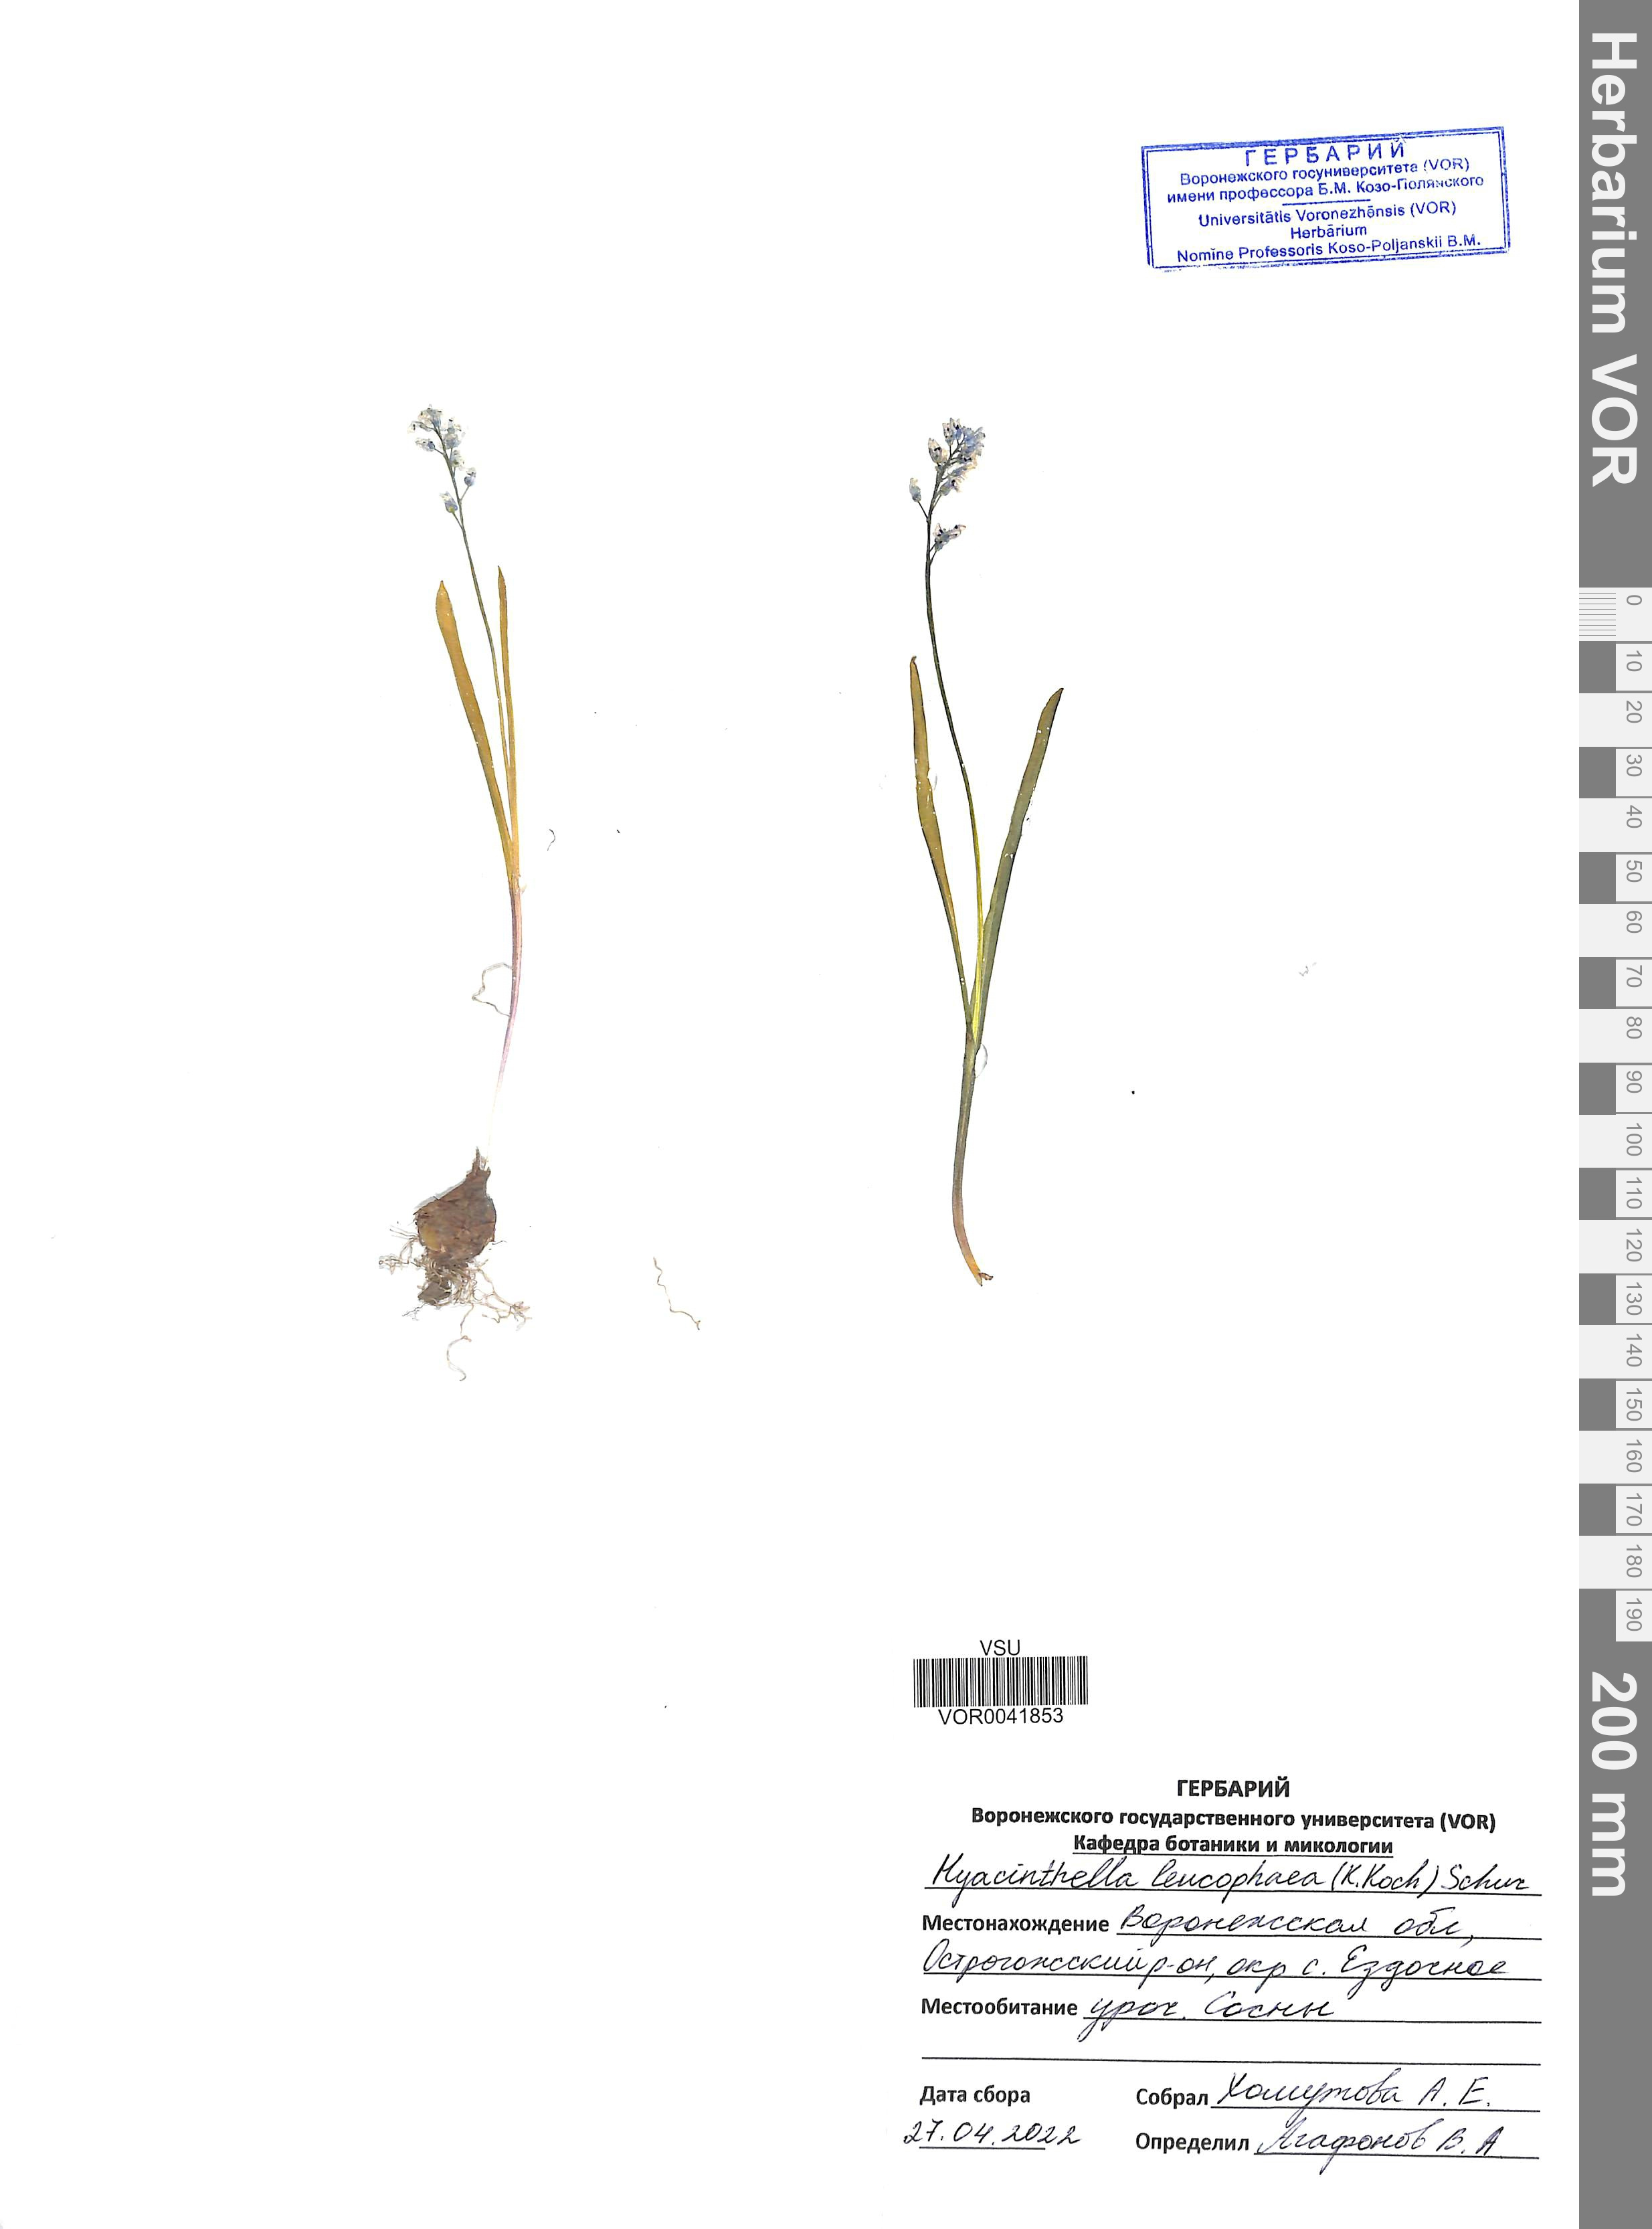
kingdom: Plantae
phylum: Tracheophyta
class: Liliopsida
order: Asparagales
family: Asparagaceae
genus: Hyacinthella
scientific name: Hyacinthella leucophaea
